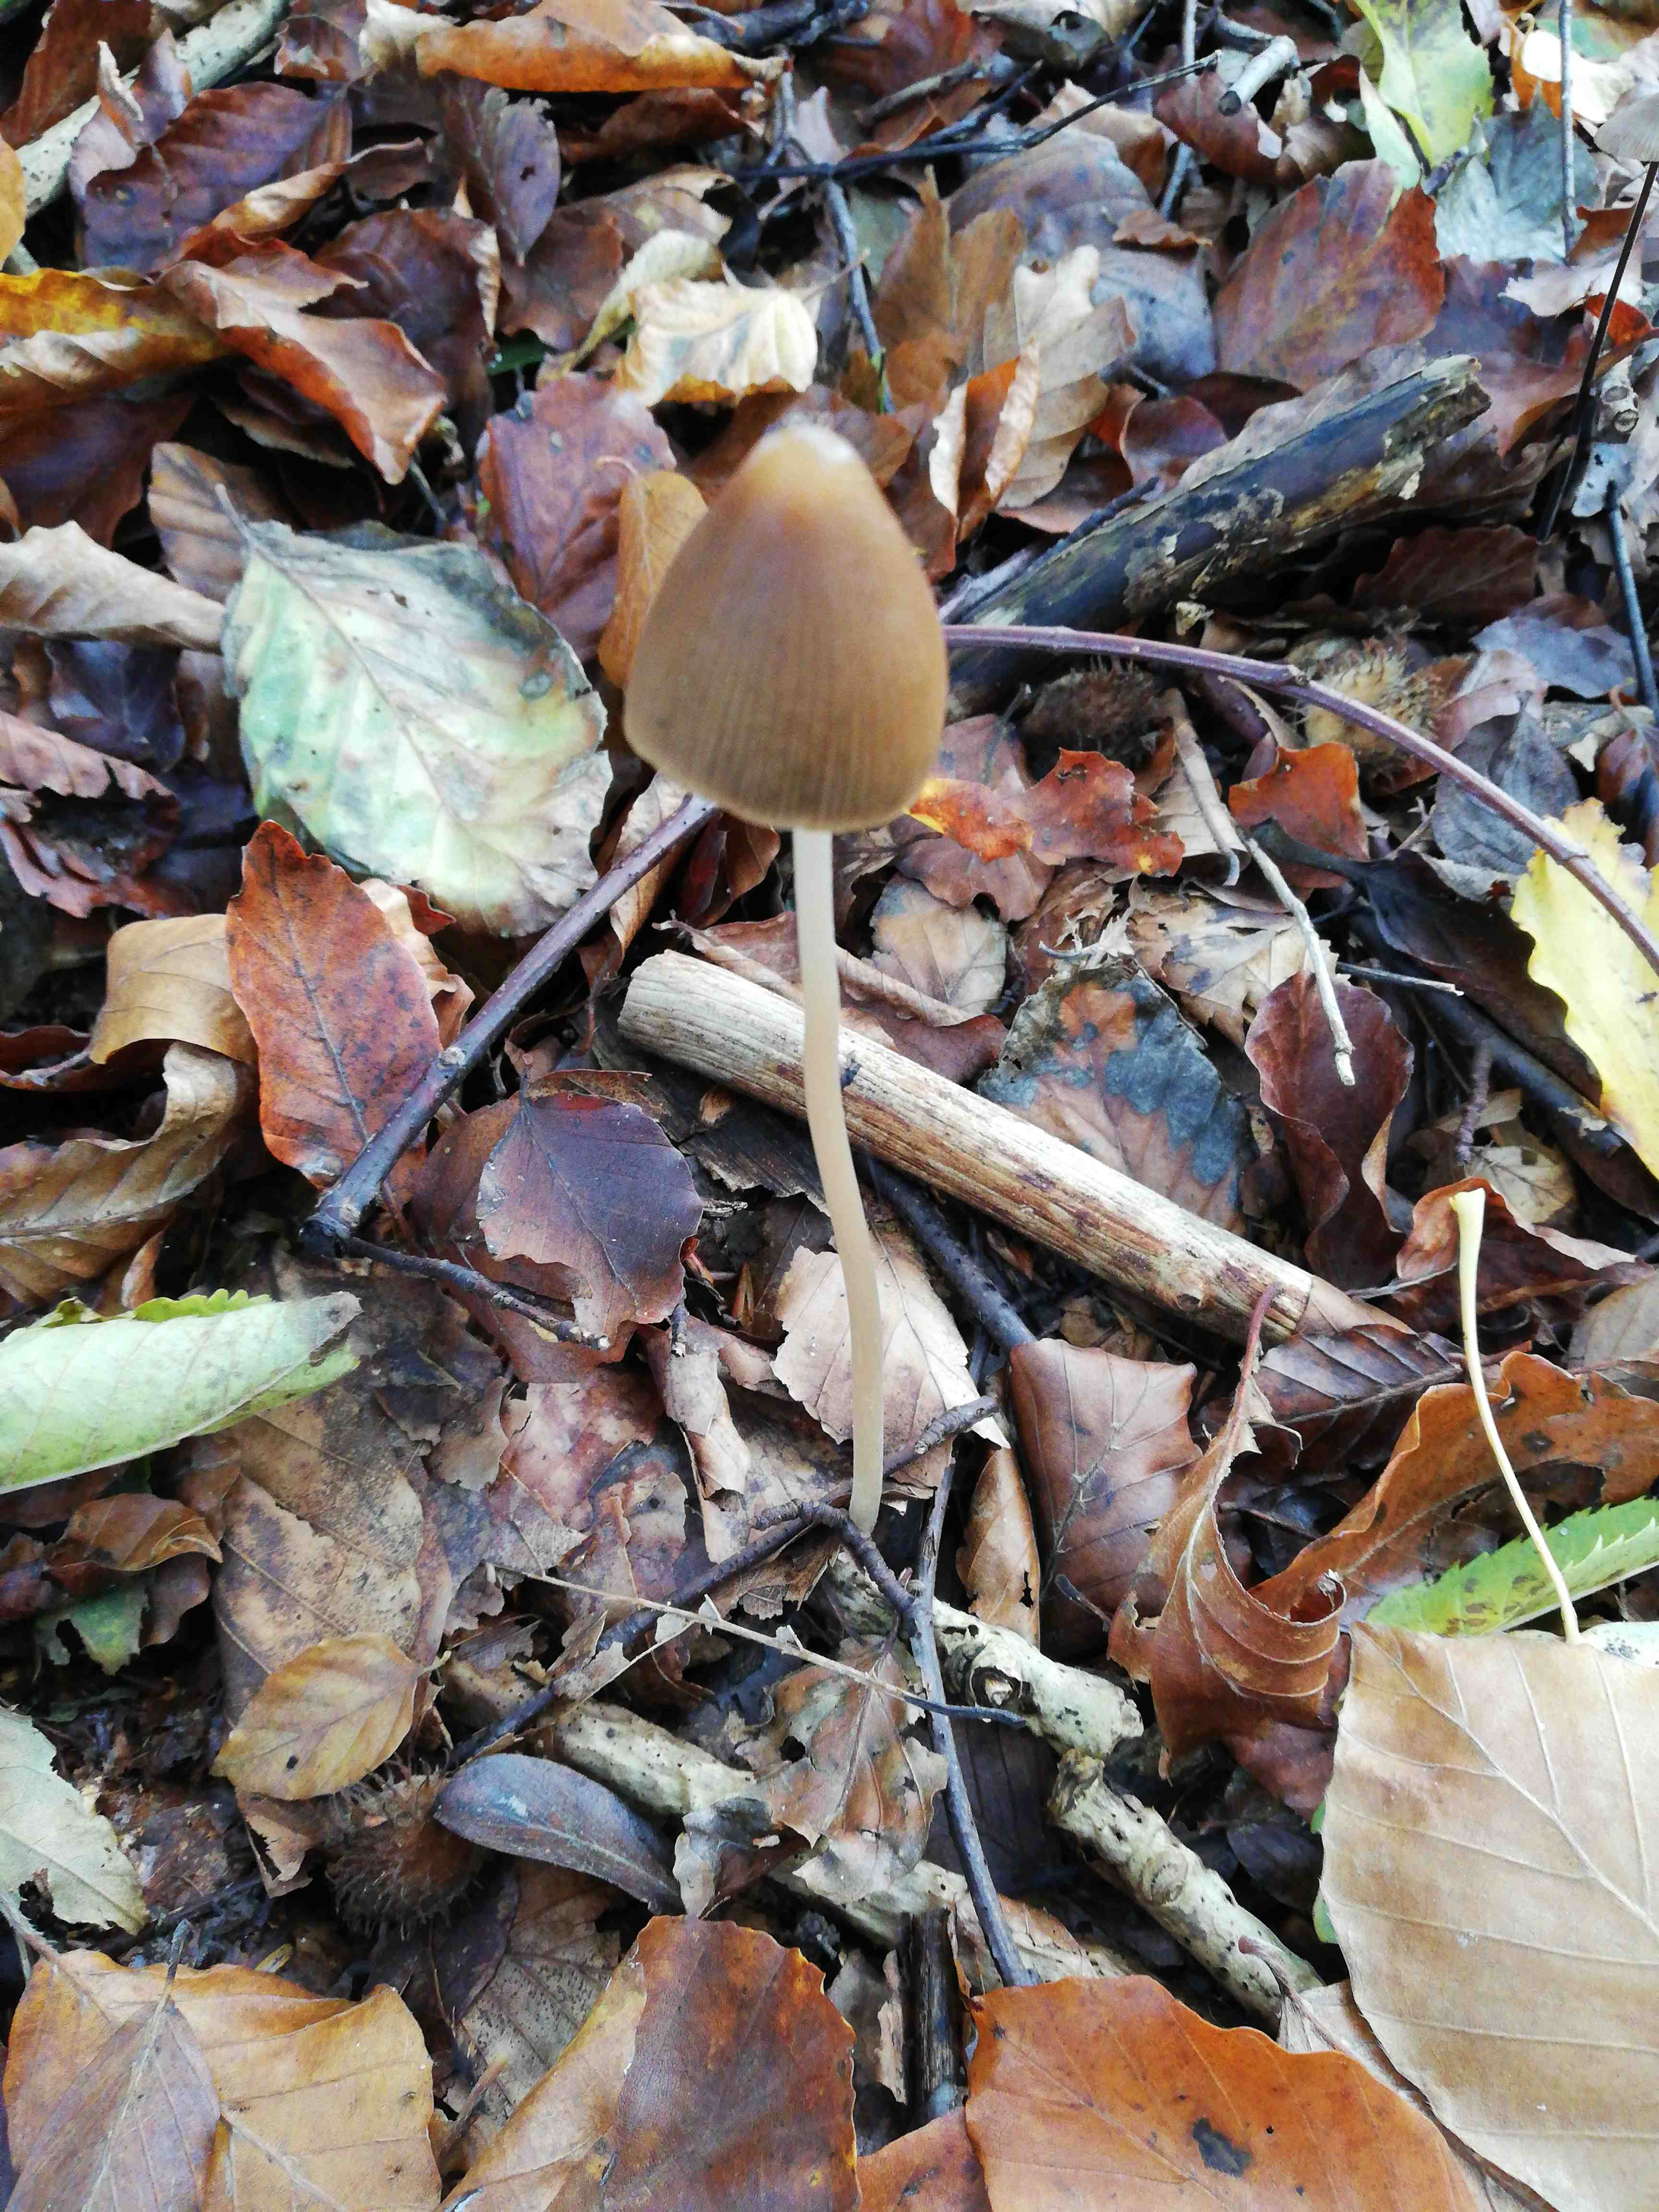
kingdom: Fungi
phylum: Basidiomycota
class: Agaricomycetes
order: Agaricales
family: Psathyrellaceae
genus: Parasola
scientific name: Parasola conopilea
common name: kegle-hjulhat
